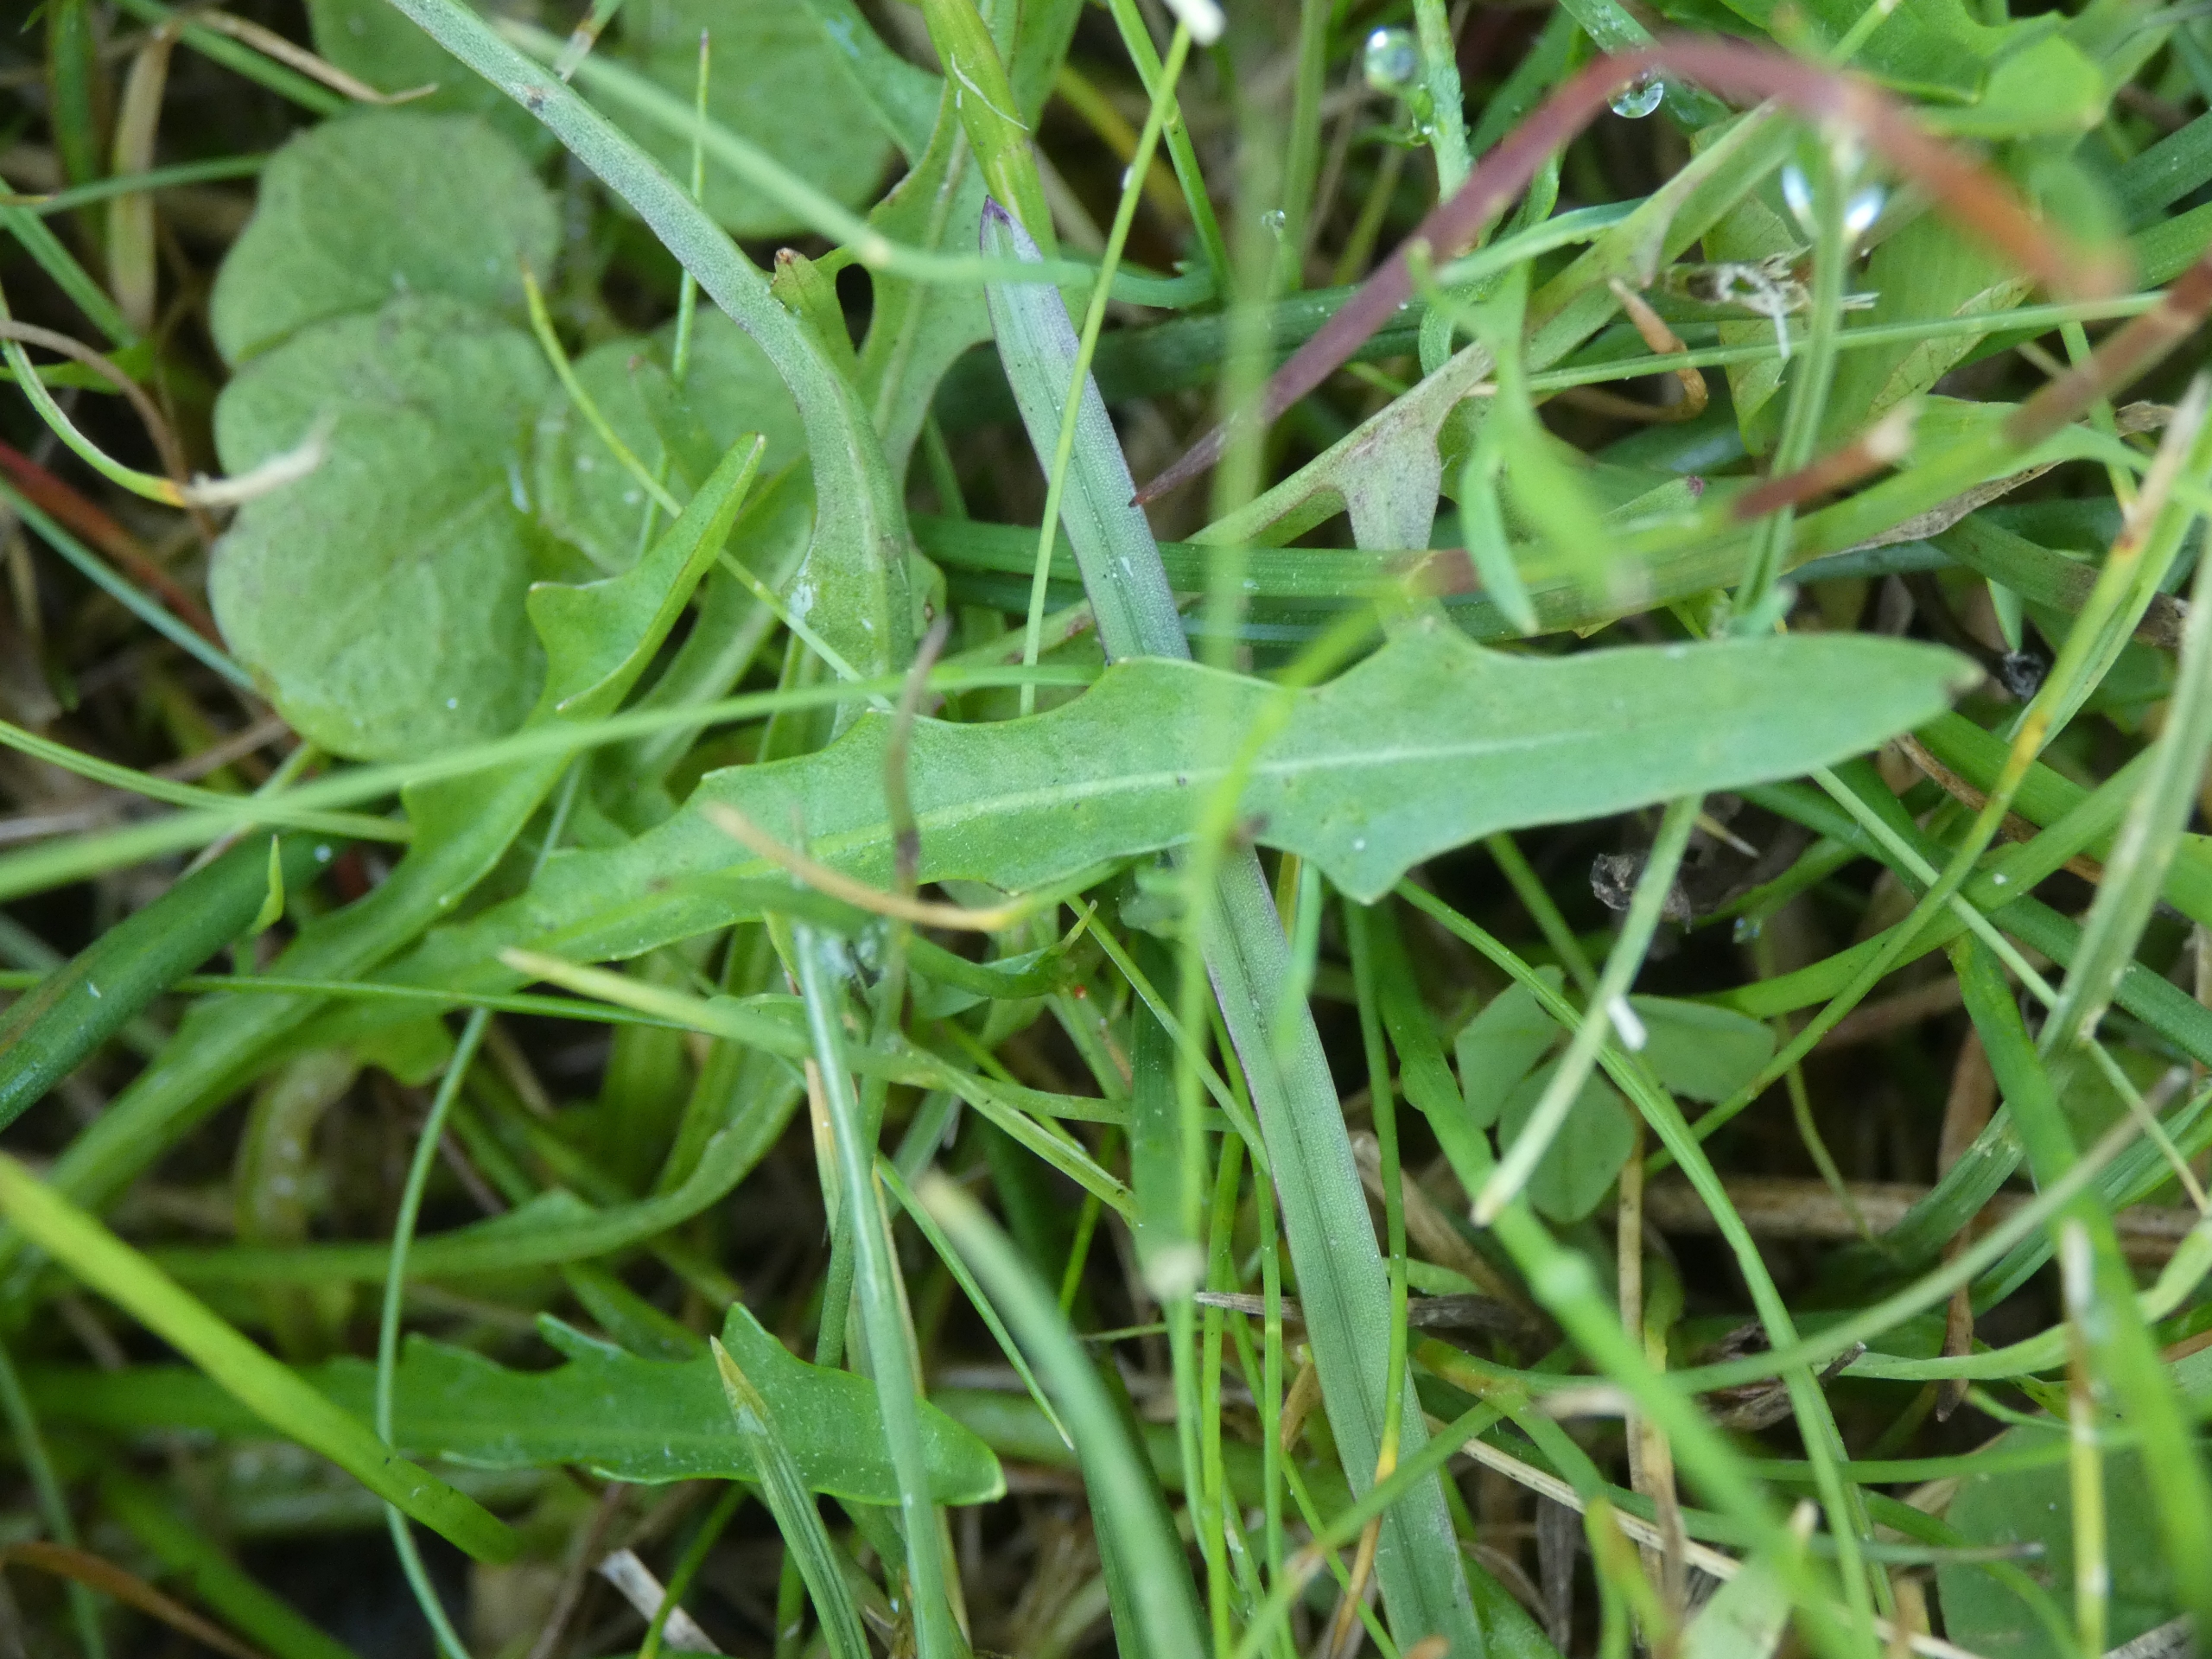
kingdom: Plantae
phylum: Tracheophyta
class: Magnoliopsida
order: Asterales
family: Asteraceae
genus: Scorzoneroides
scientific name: Scorzoneroides autumnalis
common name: Høst-borst
